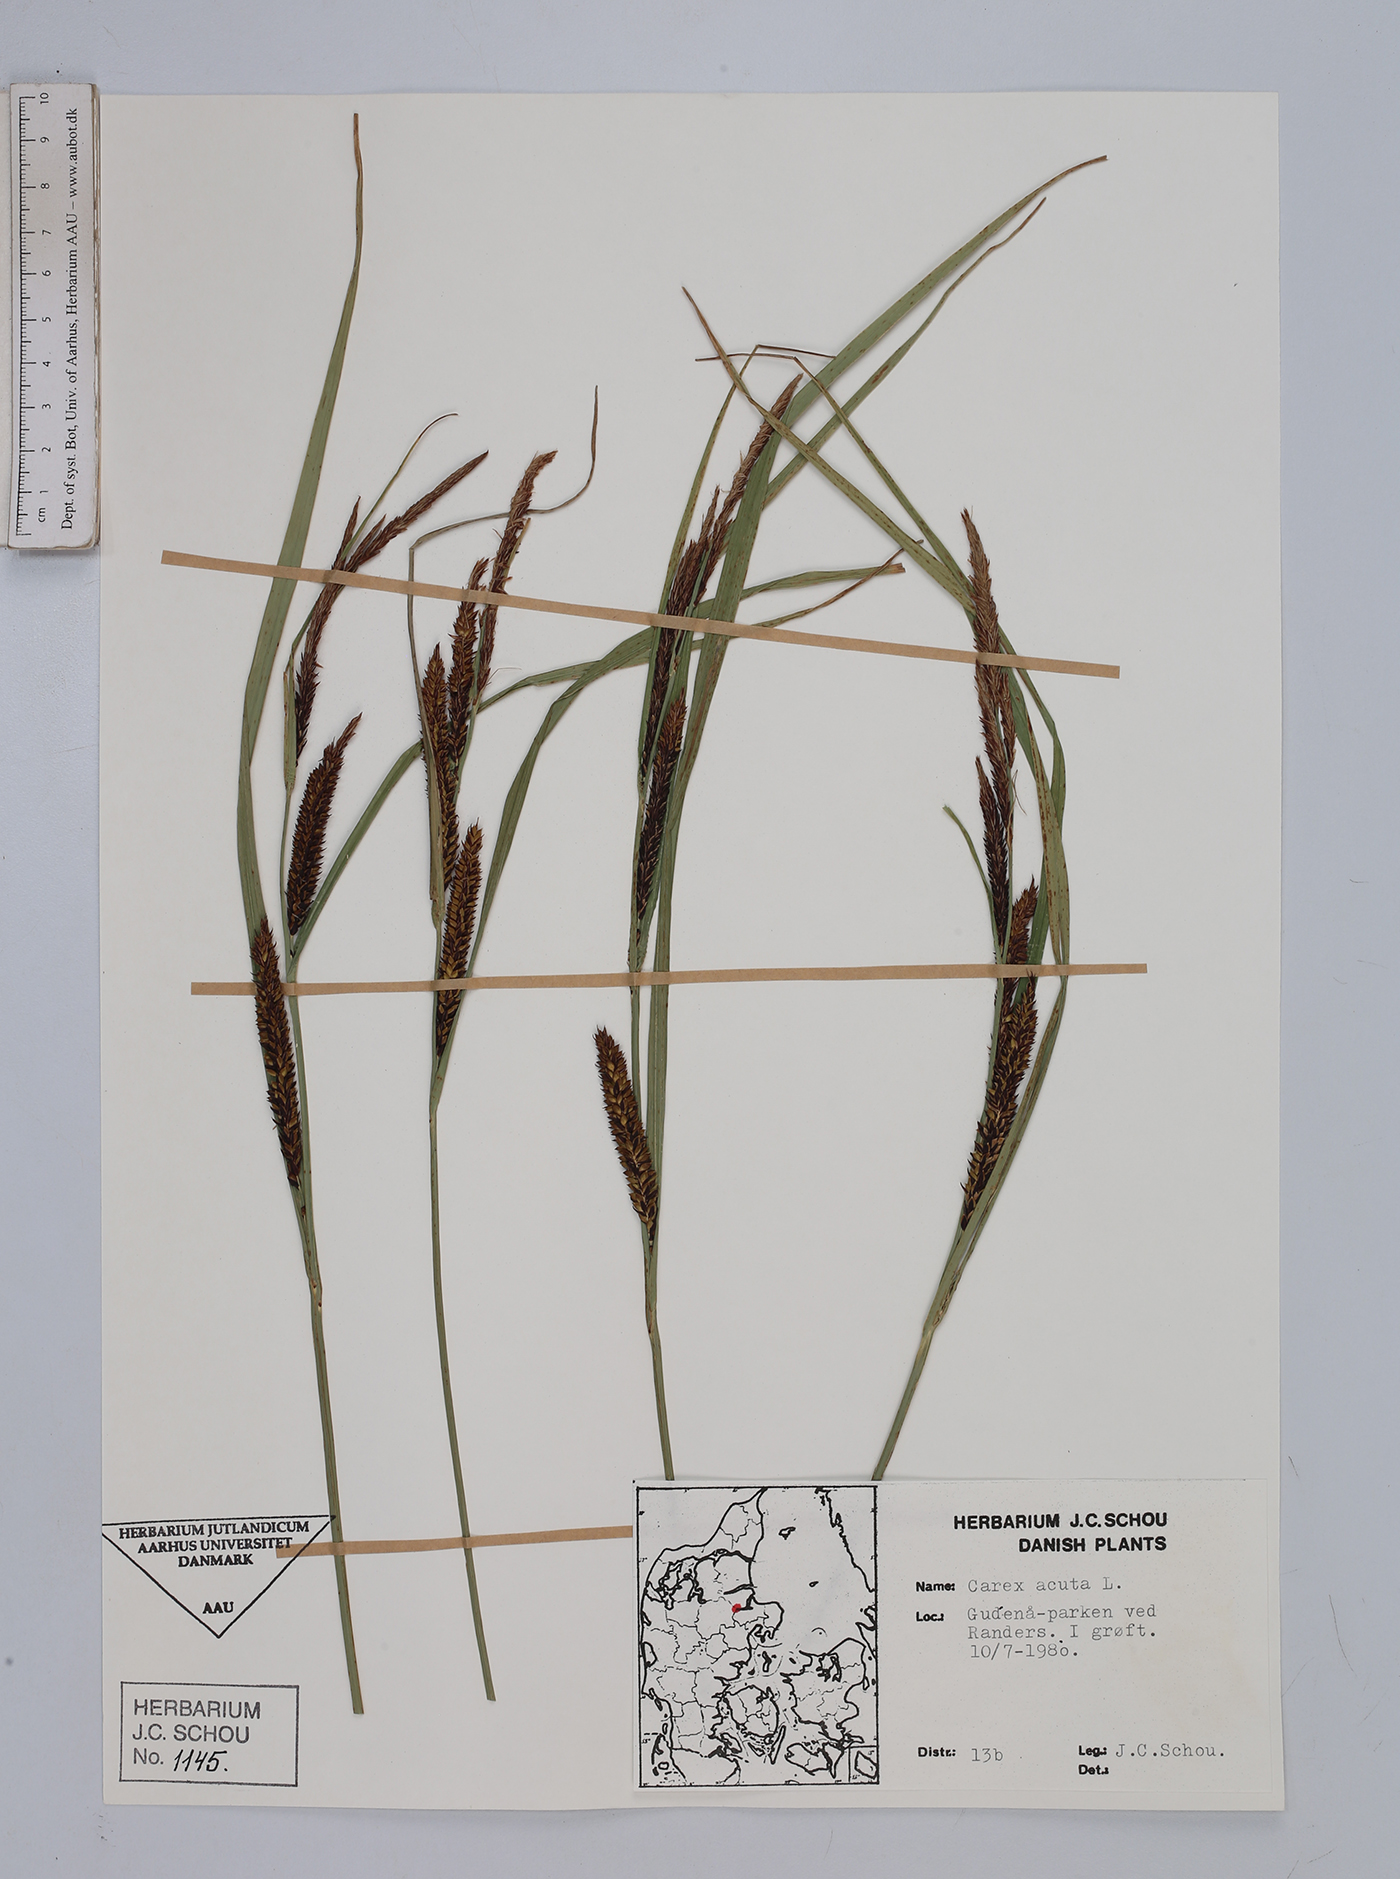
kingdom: Plantae
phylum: Tracheophyta
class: Liliopsida
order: Poales
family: Cyperaceae
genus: Carex
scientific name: Carex acuta
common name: Slender tufted-sedge
